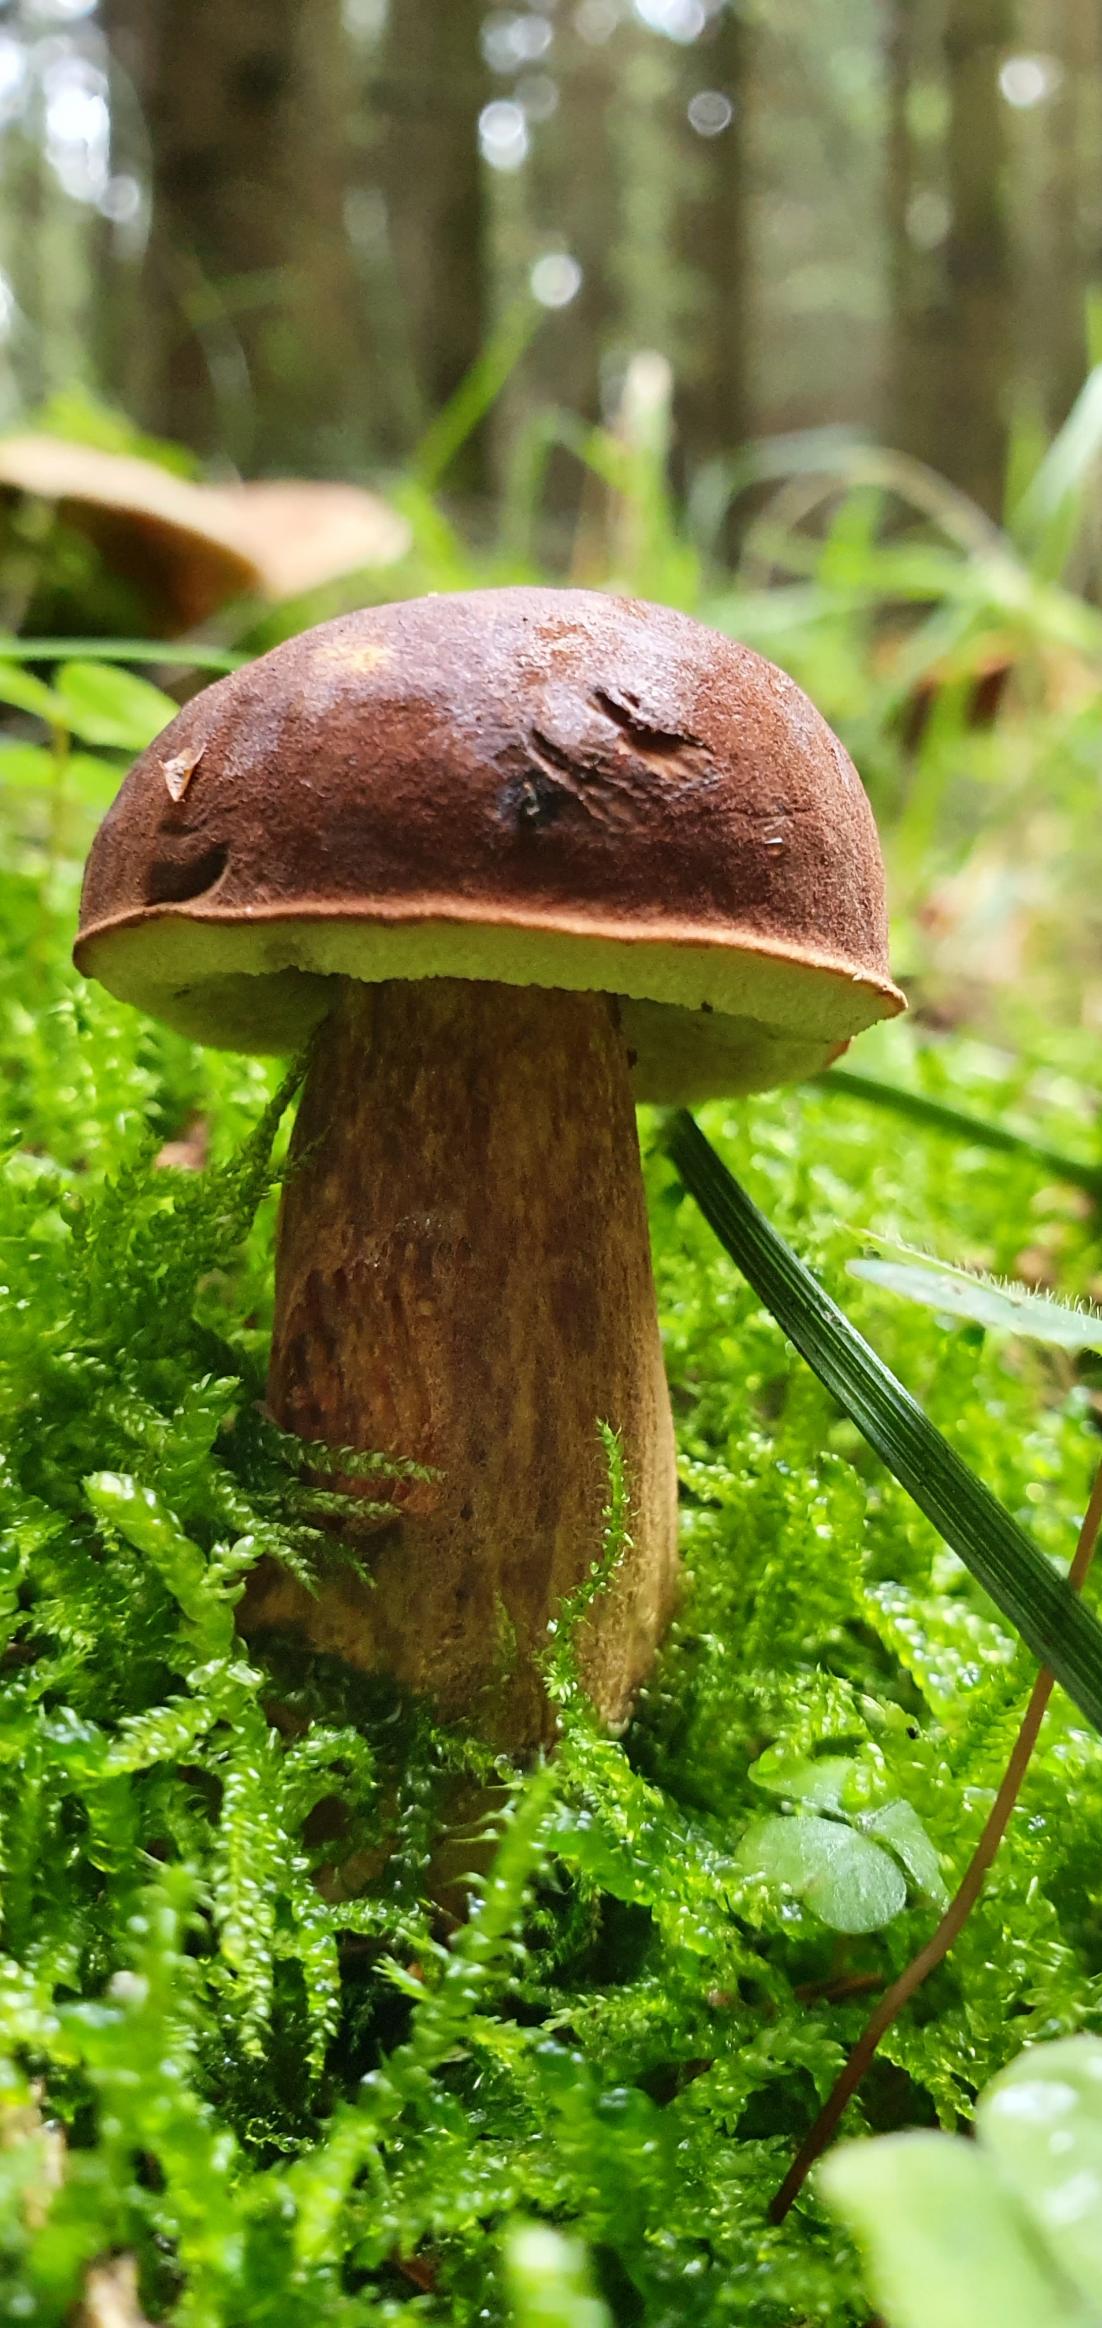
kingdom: Fungi
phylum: Basidiomycota
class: Agaricomycetes
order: Boletales
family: Boletaceae
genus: Imleria
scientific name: Imleria badia
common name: Brunstokket rørhat
